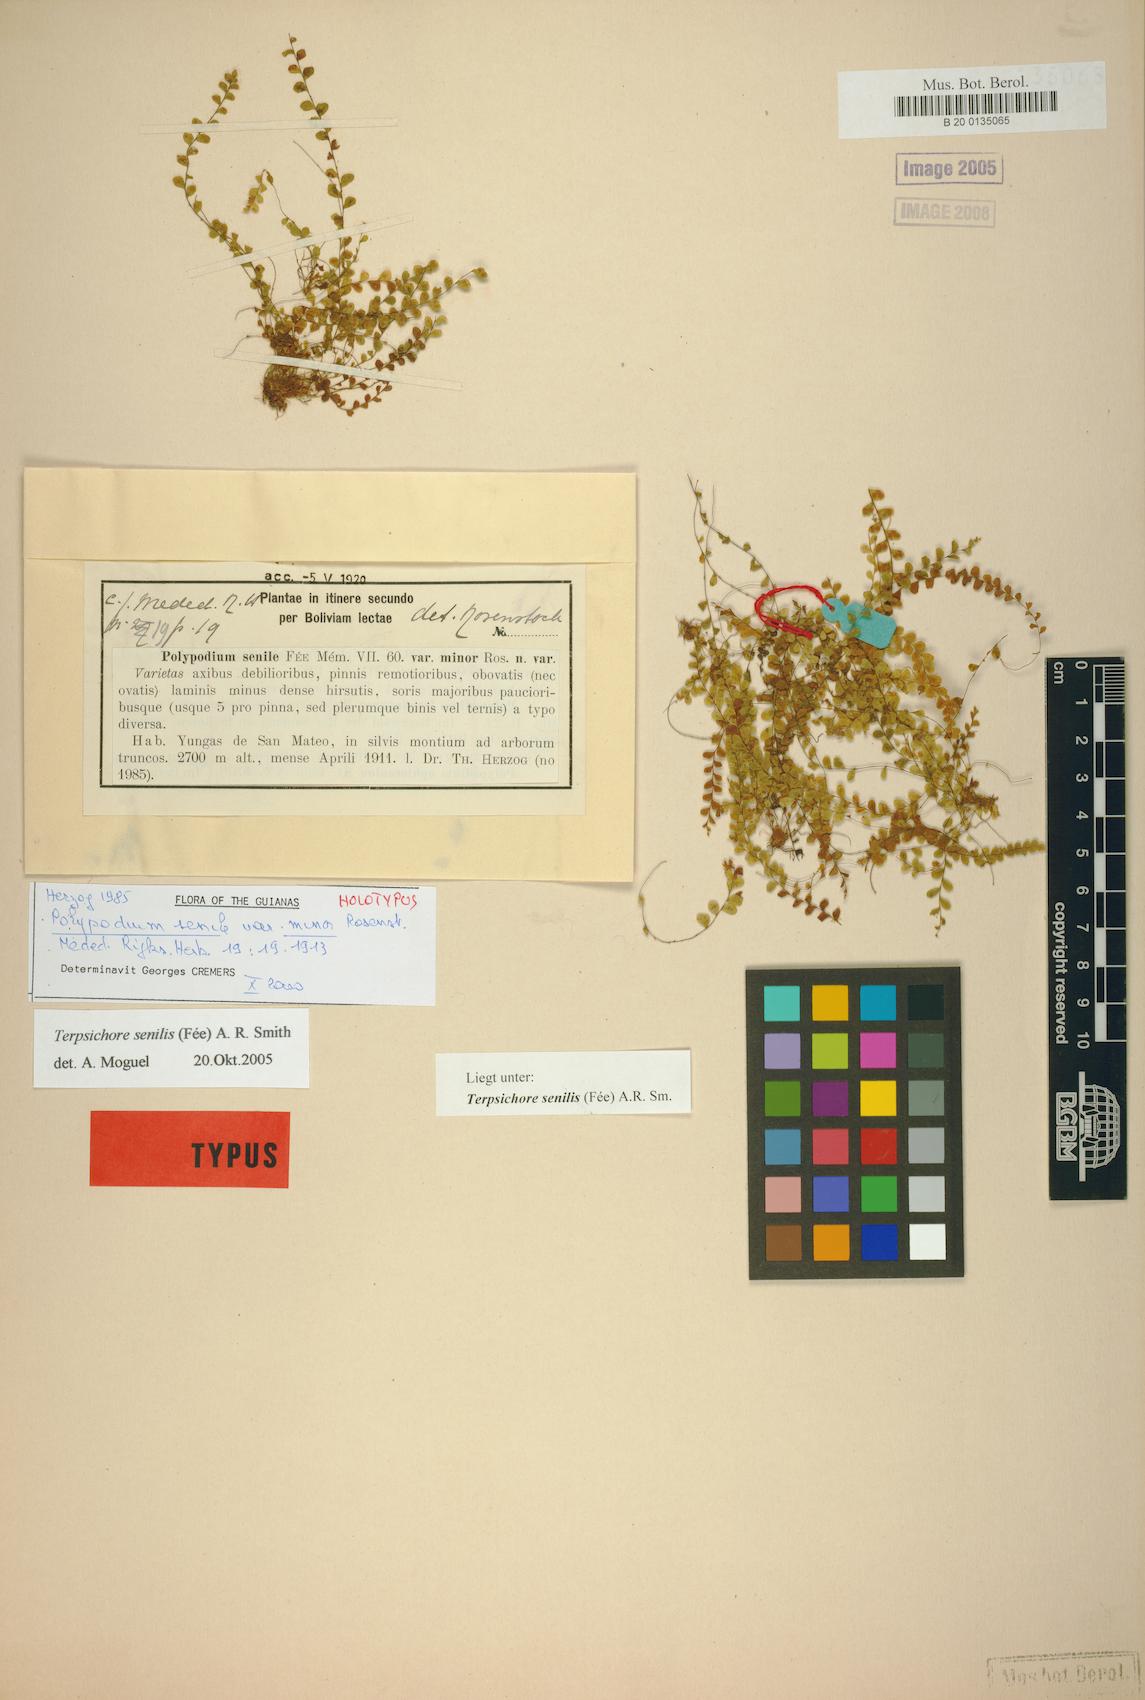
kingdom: Plantae
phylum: Tracheophyta
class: Polypodiopsida
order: Polypodiales
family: Polypodiaceae
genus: Alansmia
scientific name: Alansmia senilis
